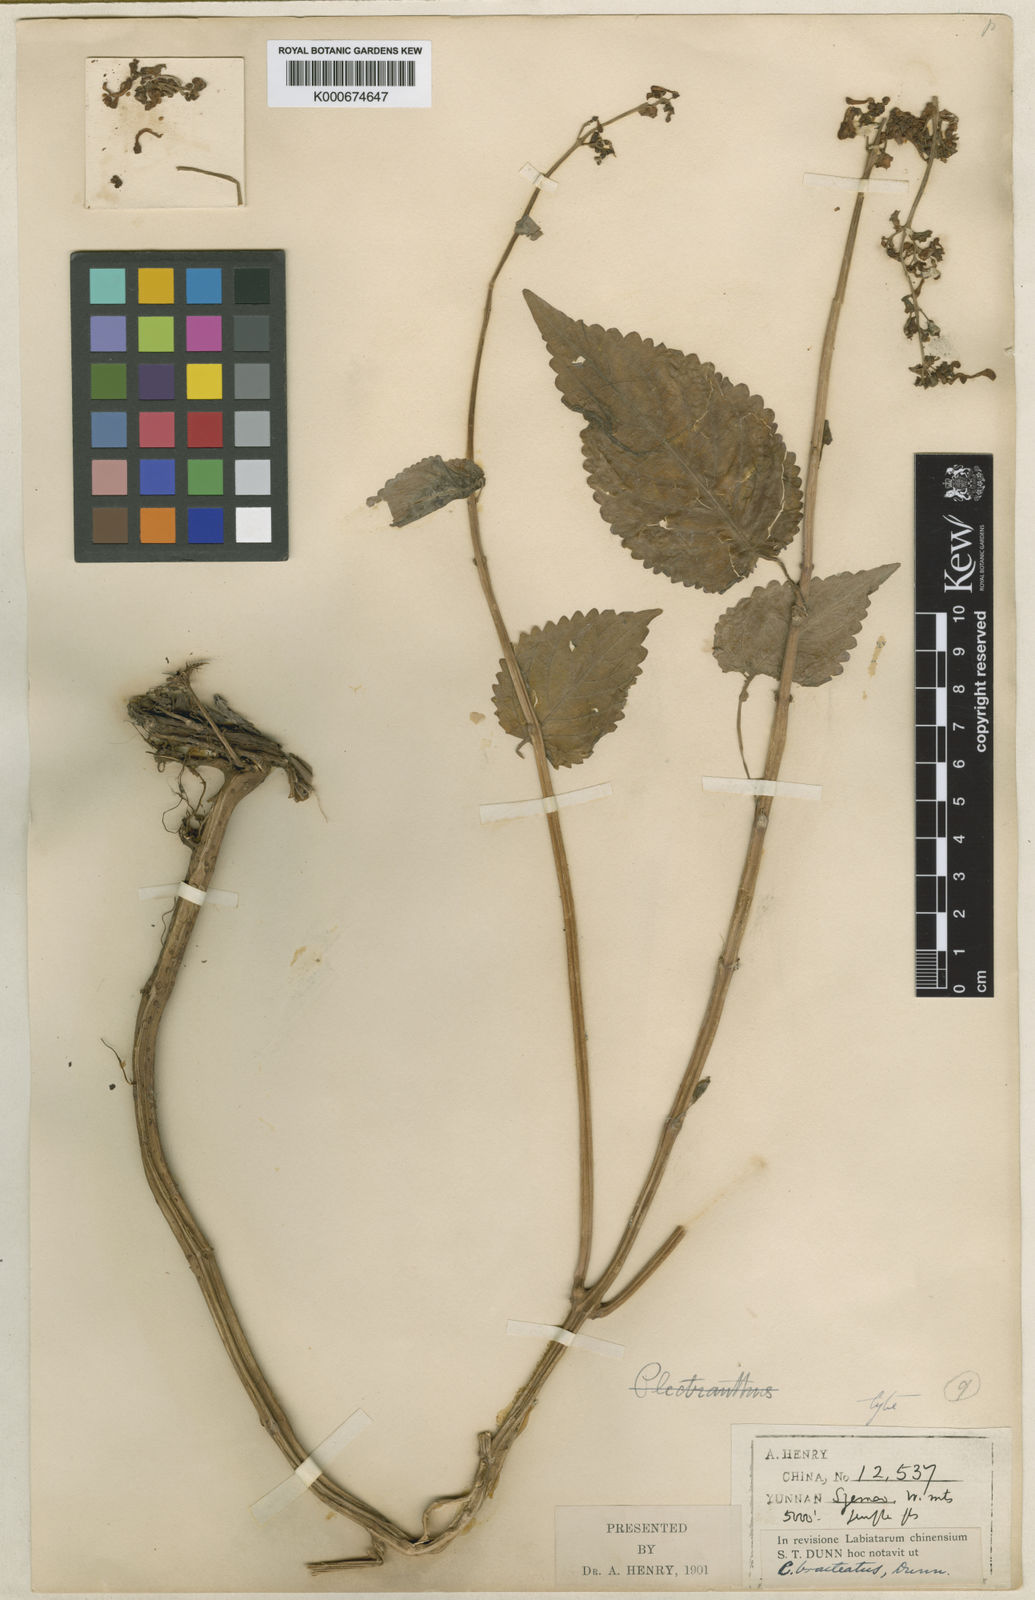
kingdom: Plantae
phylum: Tracheophyta
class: Magnoliopsida
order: Lamiales
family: Lamiaceae
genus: Coleus
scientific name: Coleus bracteatus
